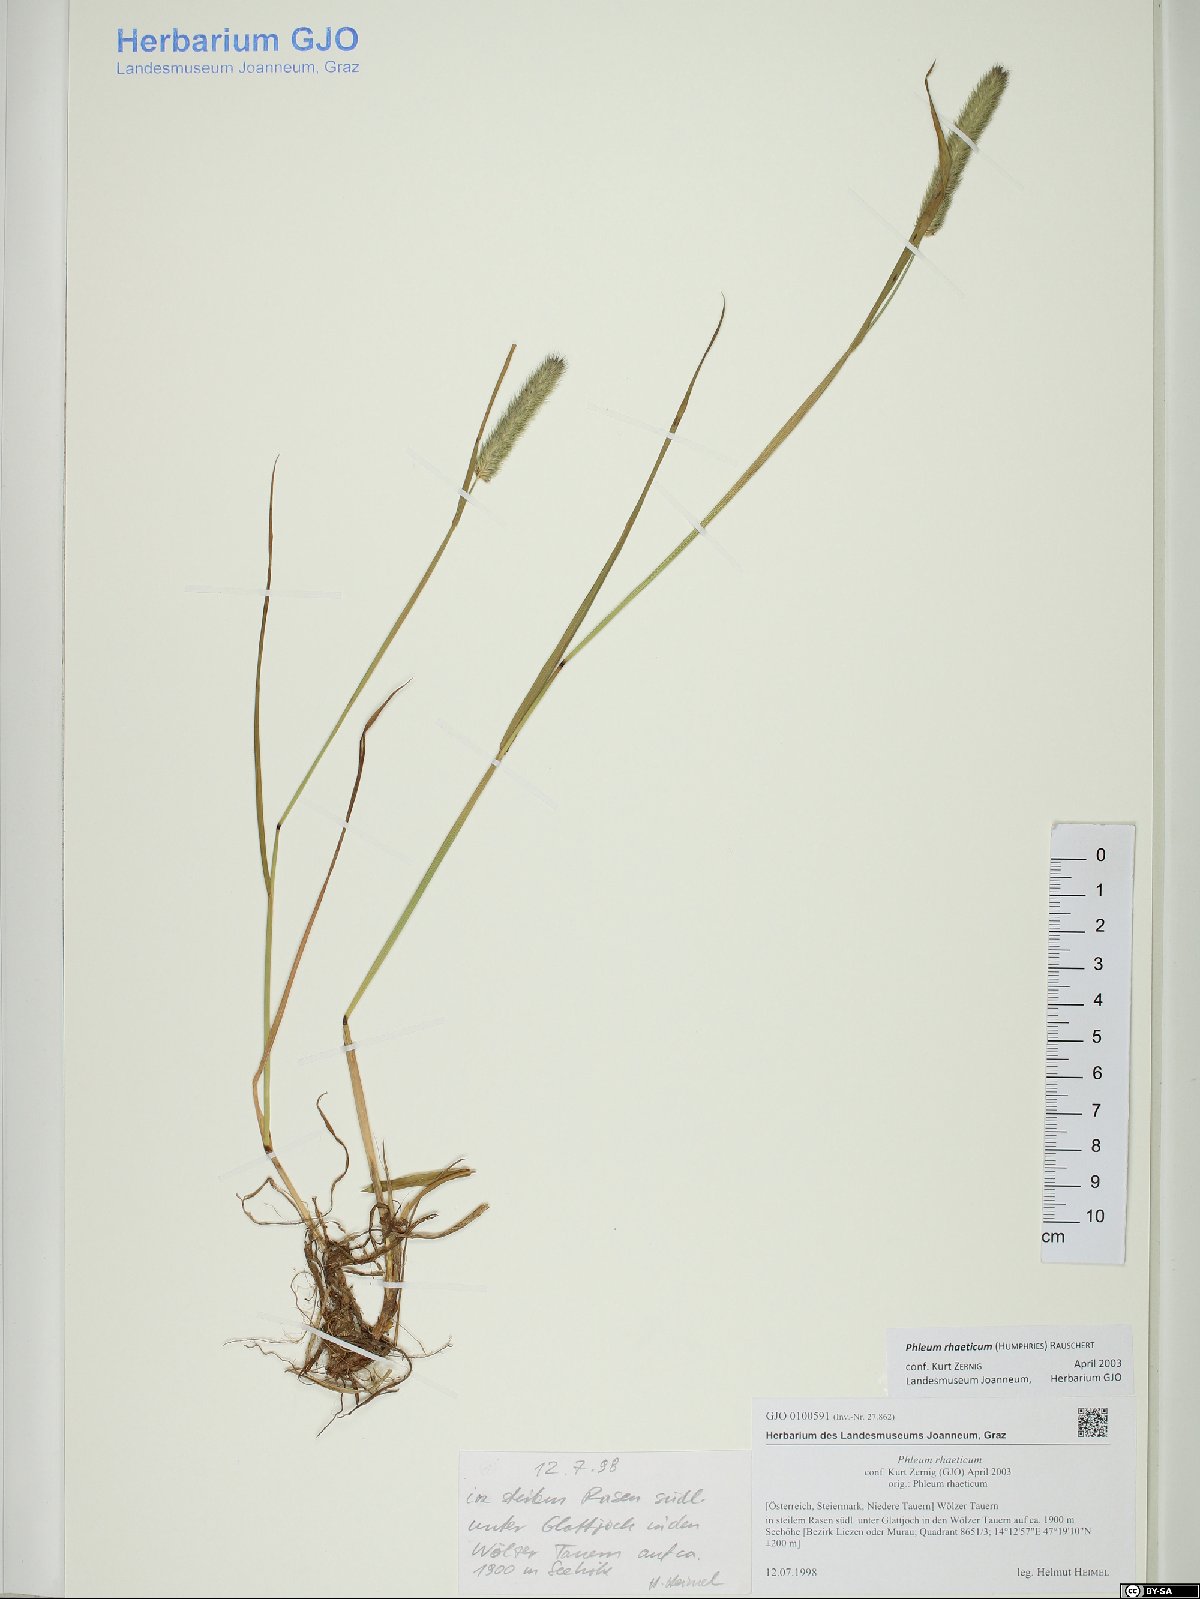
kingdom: Plantae
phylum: Tracheophyta
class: Liliopsida
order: Poales
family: Poaceae
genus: Phleum
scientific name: Phleum alpinum
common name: Alpine cat's-tail
